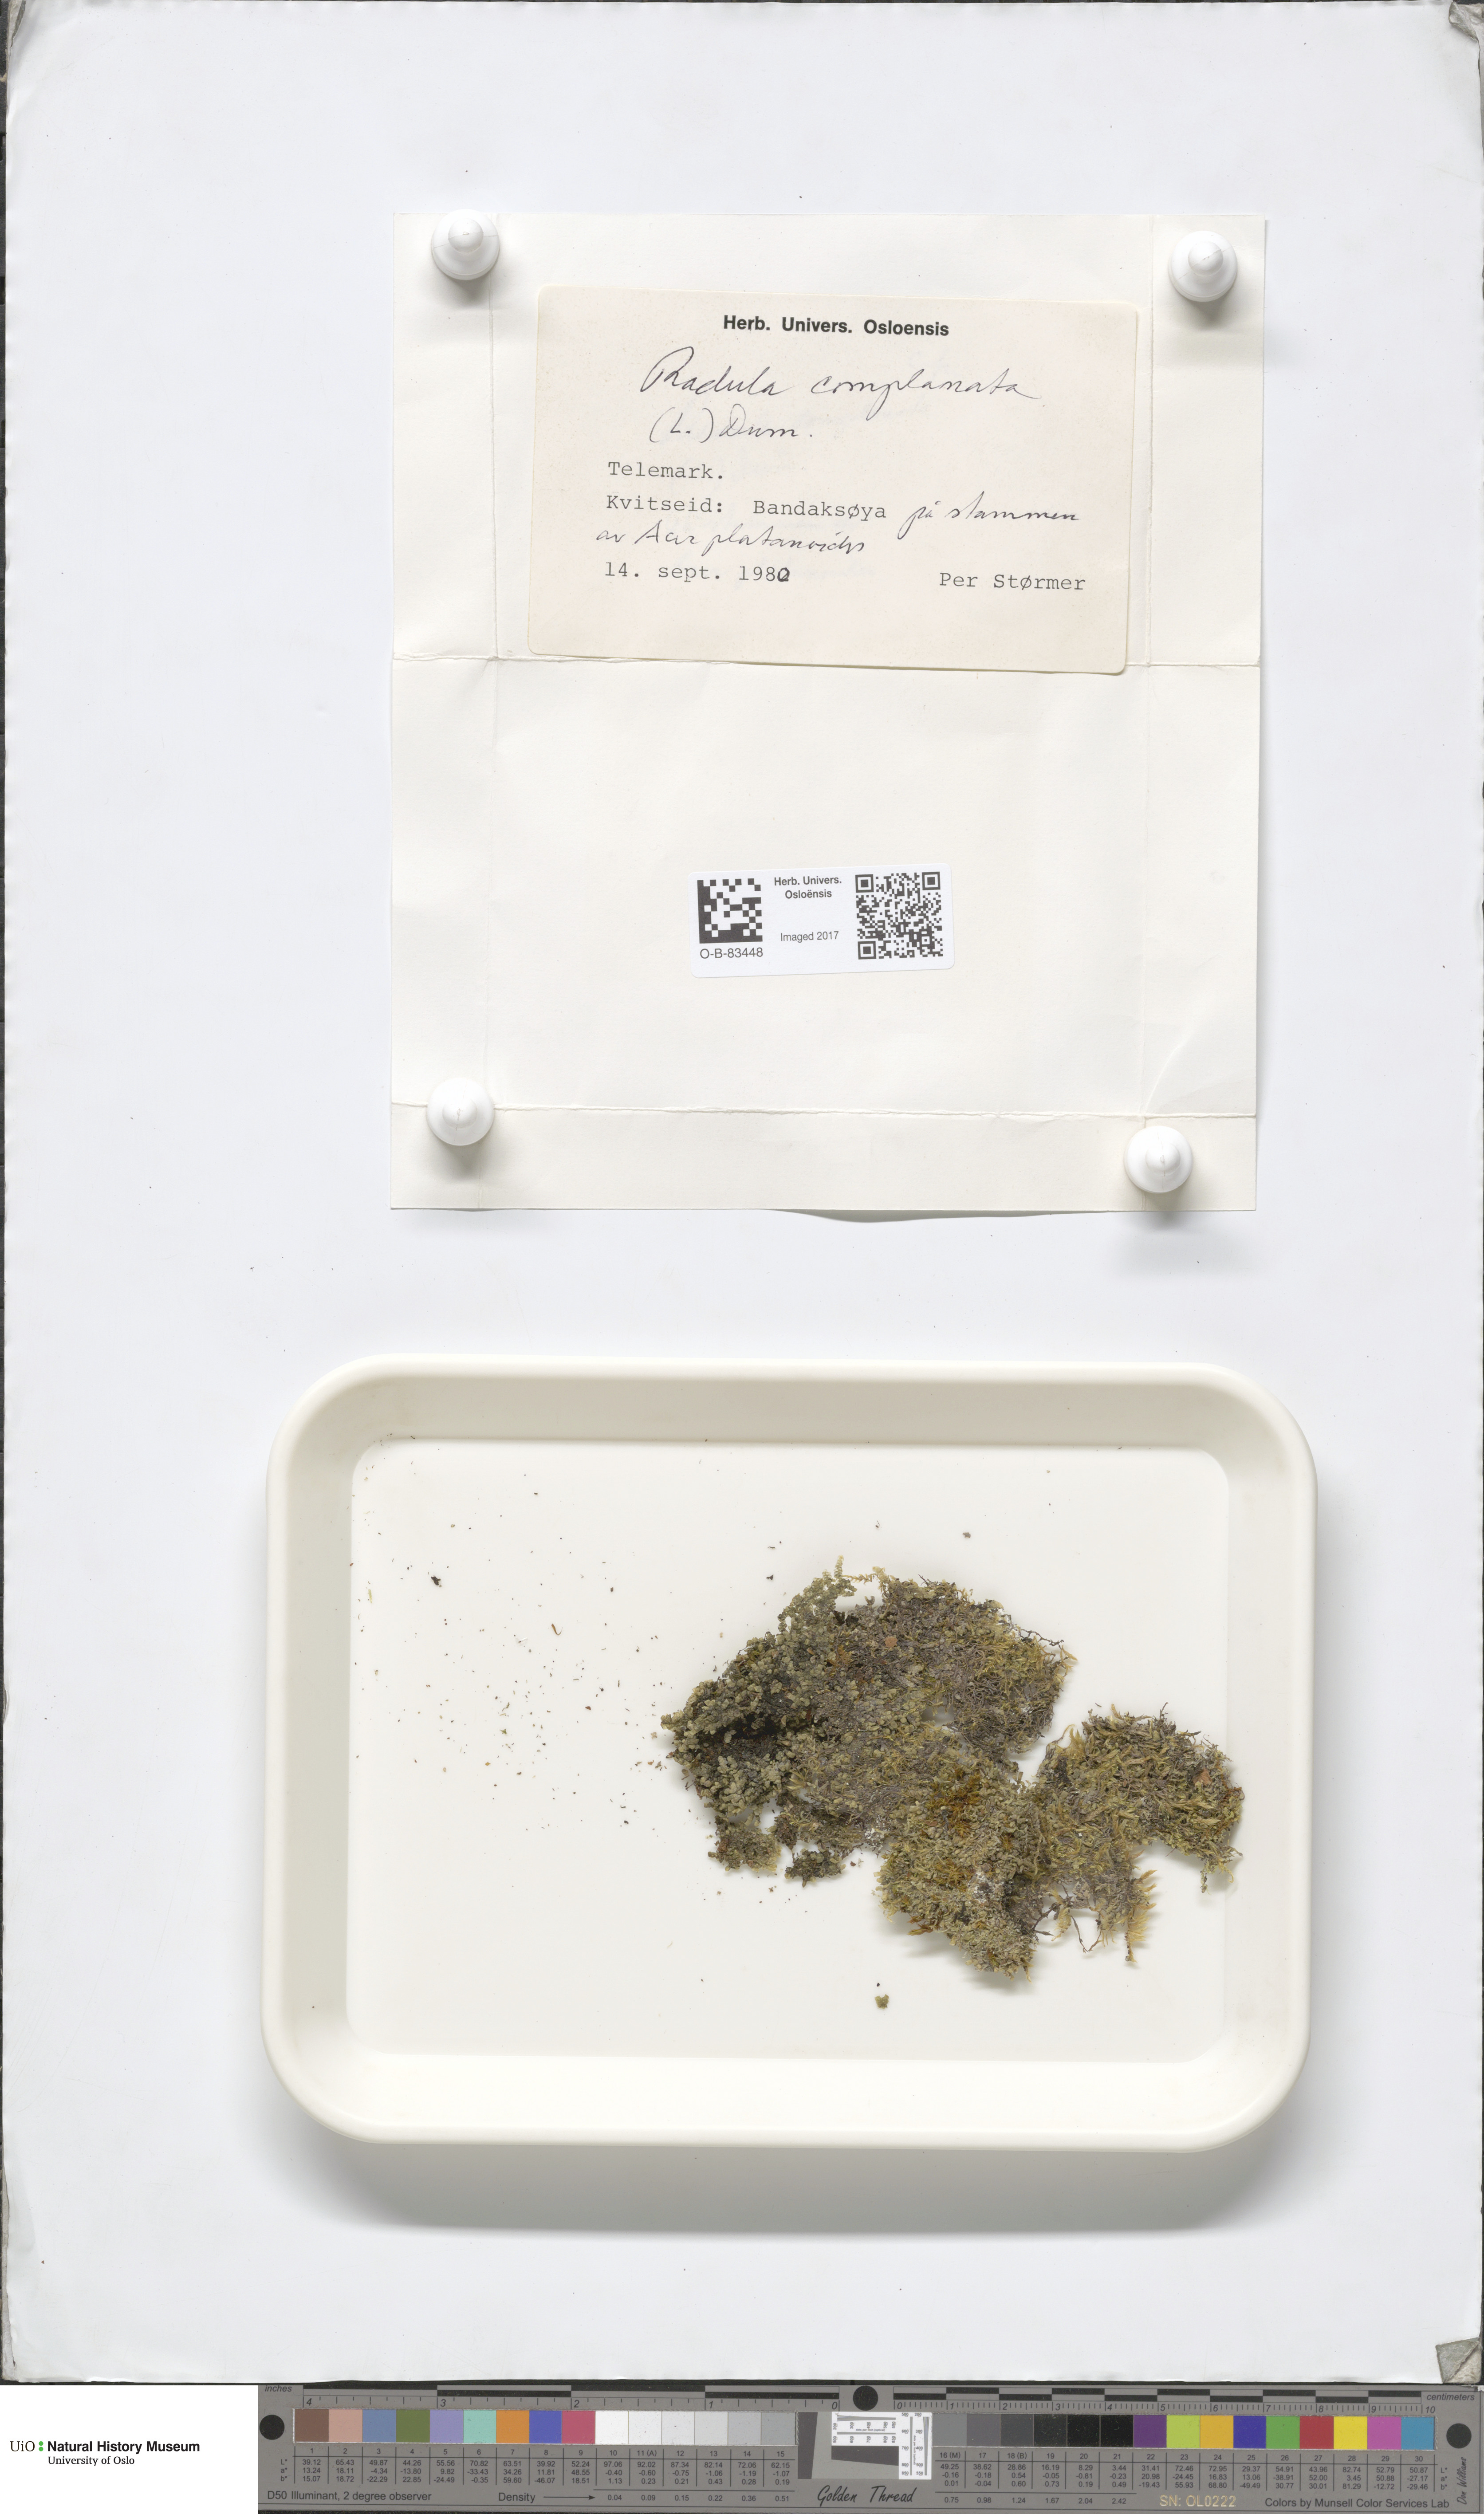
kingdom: Plantae
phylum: Marchantiophyta
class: Jungermanniopsida
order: Porellales
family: Radulaceae
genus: Radula
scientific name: Radula complanata
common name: Flat-leaved scalewort
